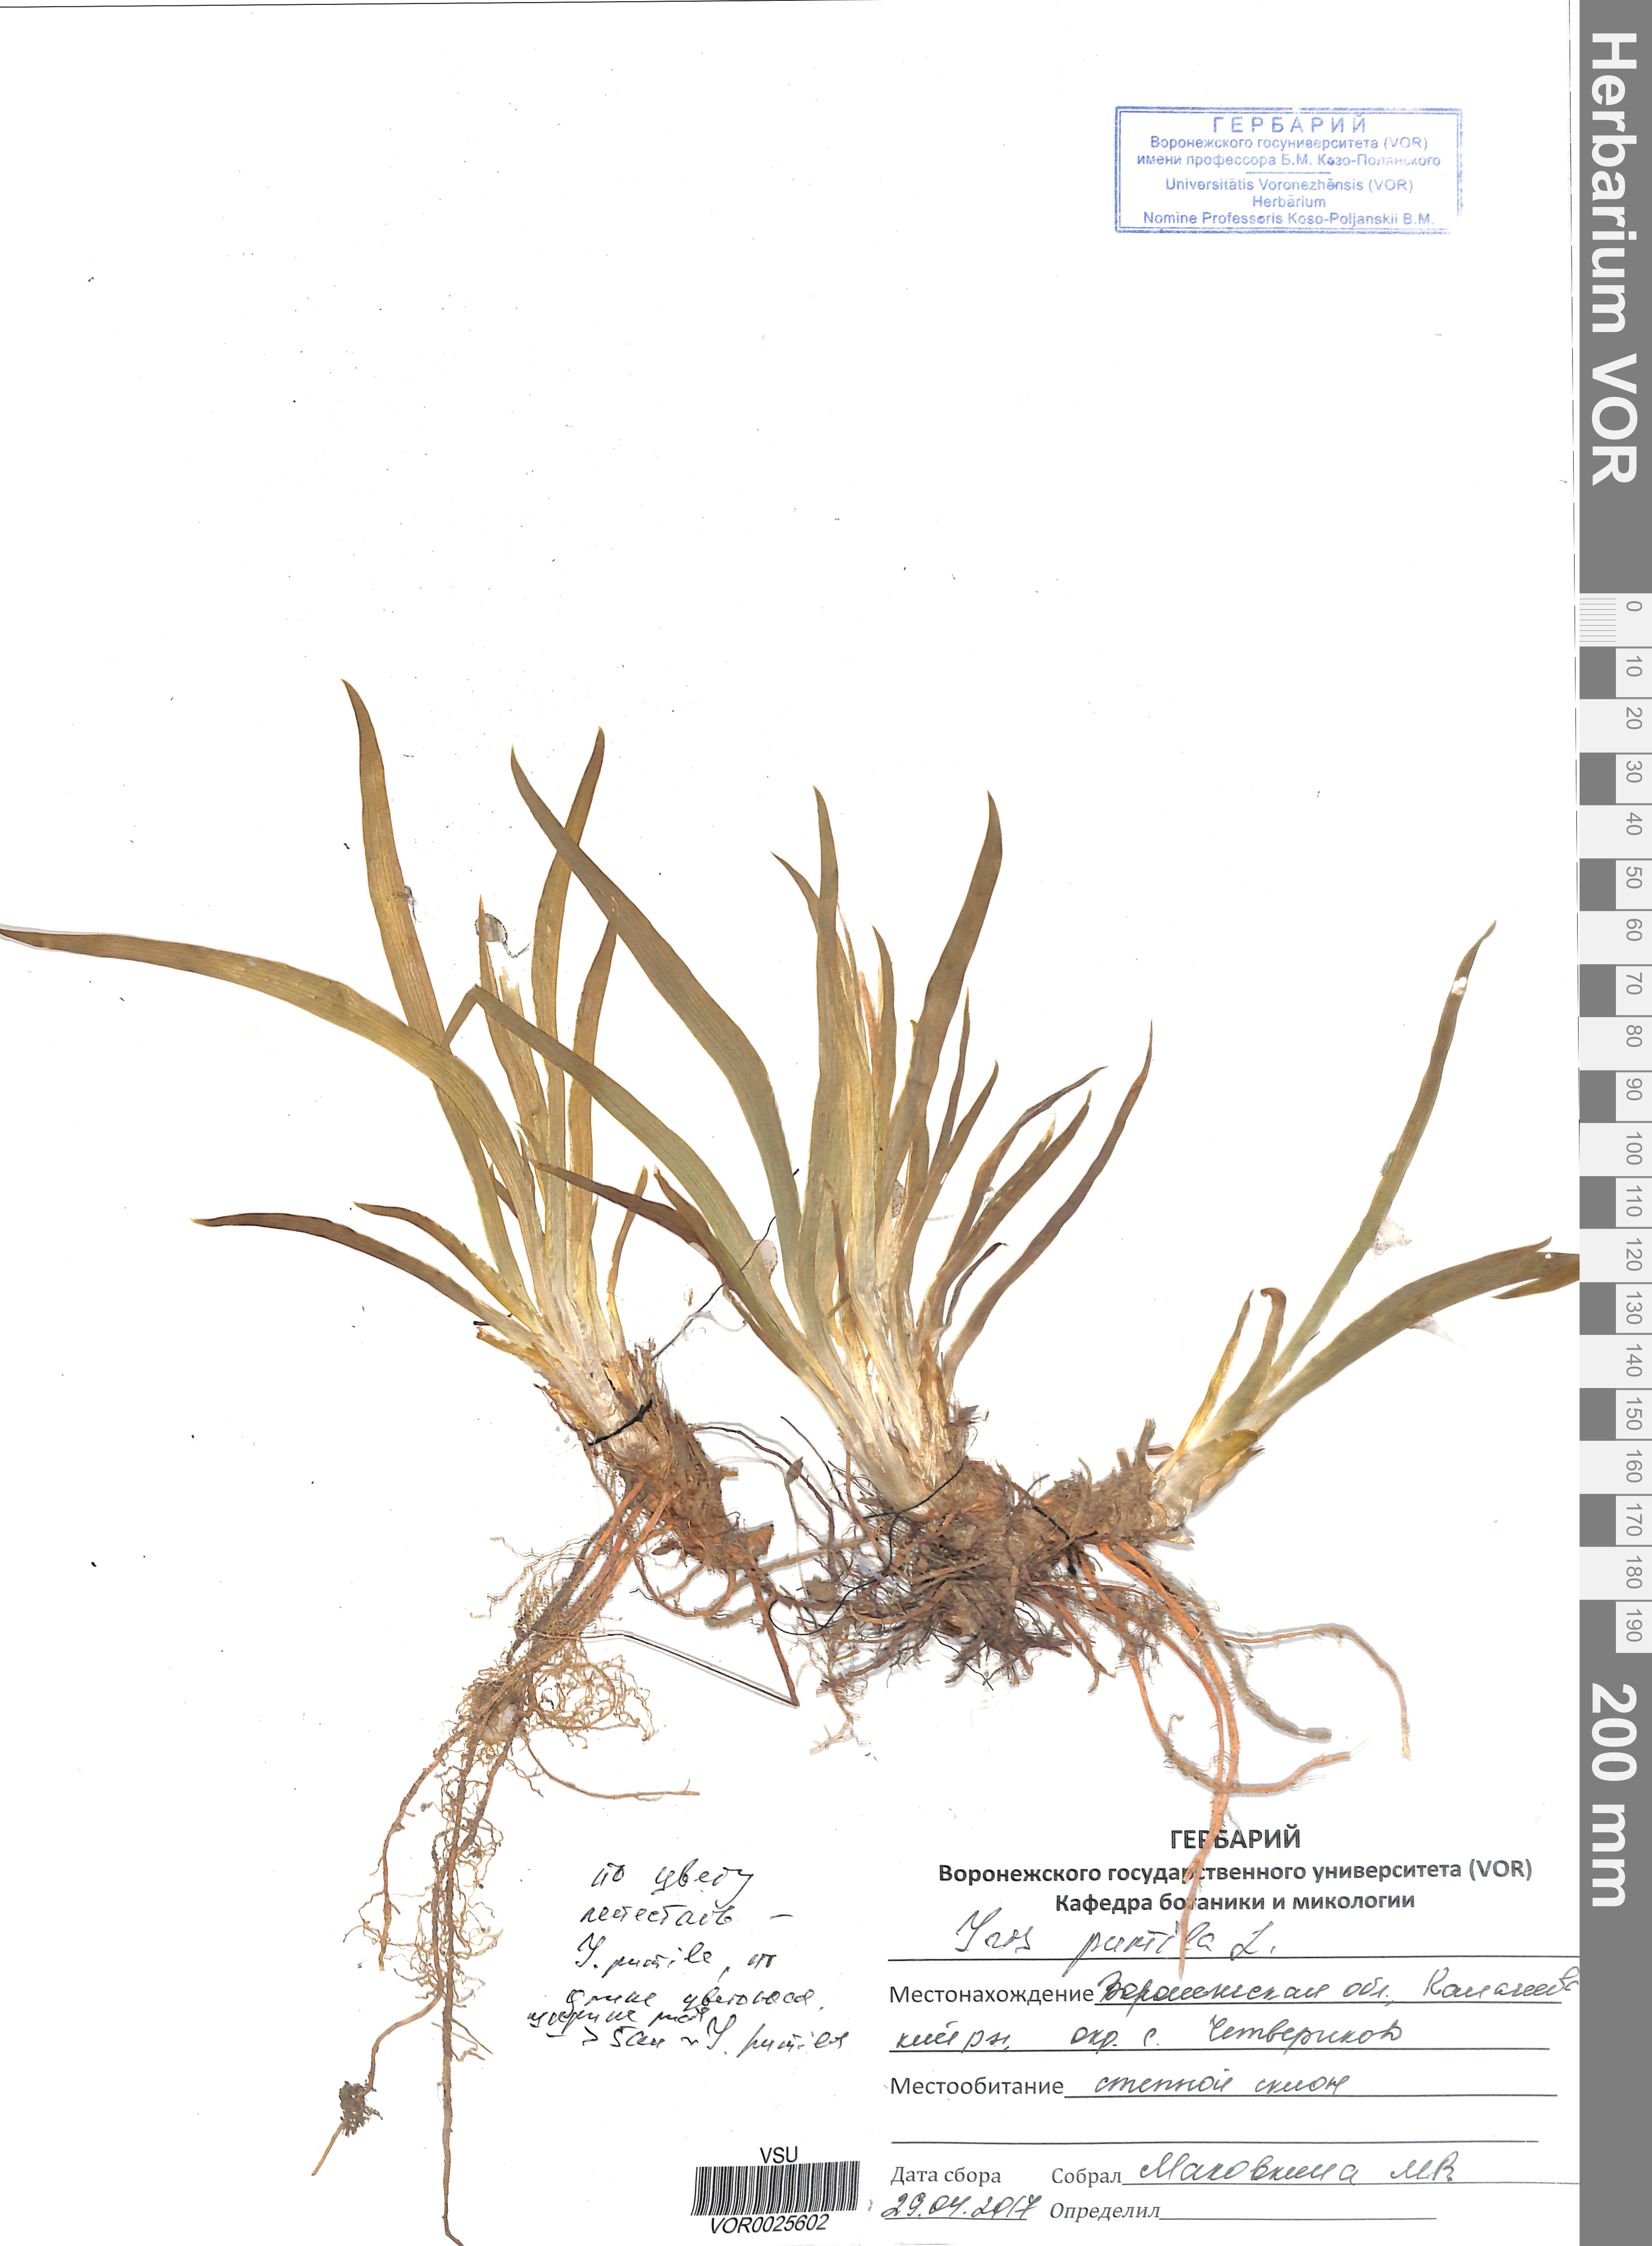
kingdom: Plantae
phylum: Tracheophyta
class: Liliopsida
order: Asparagales
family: Iridaceae
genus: Iris
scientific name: Iris pumila
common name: Dwarf iris
